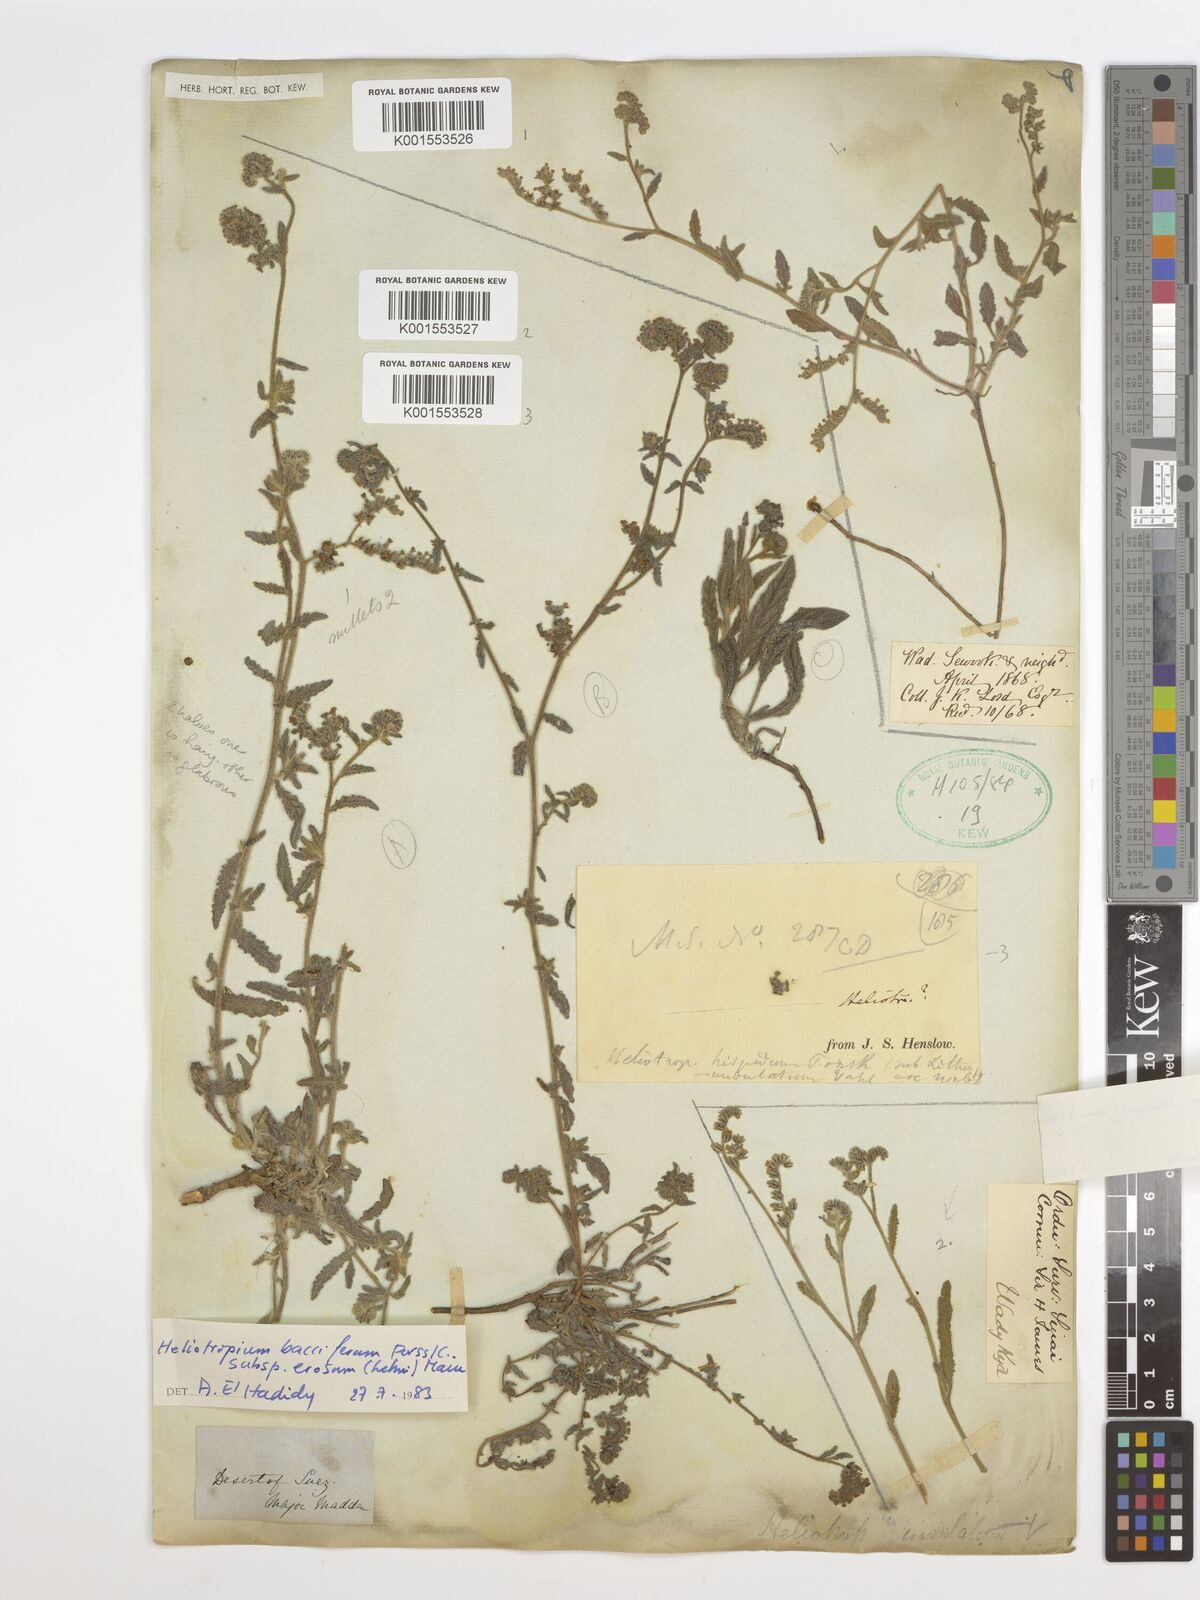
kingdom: Plantae
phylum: Tracheophyta
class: Magnoliopsida
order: Boraginales
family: Heliotropiaceae
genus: Heliotropium
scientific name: Heliotropium ramosissimum
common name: Wavy heliotrope
